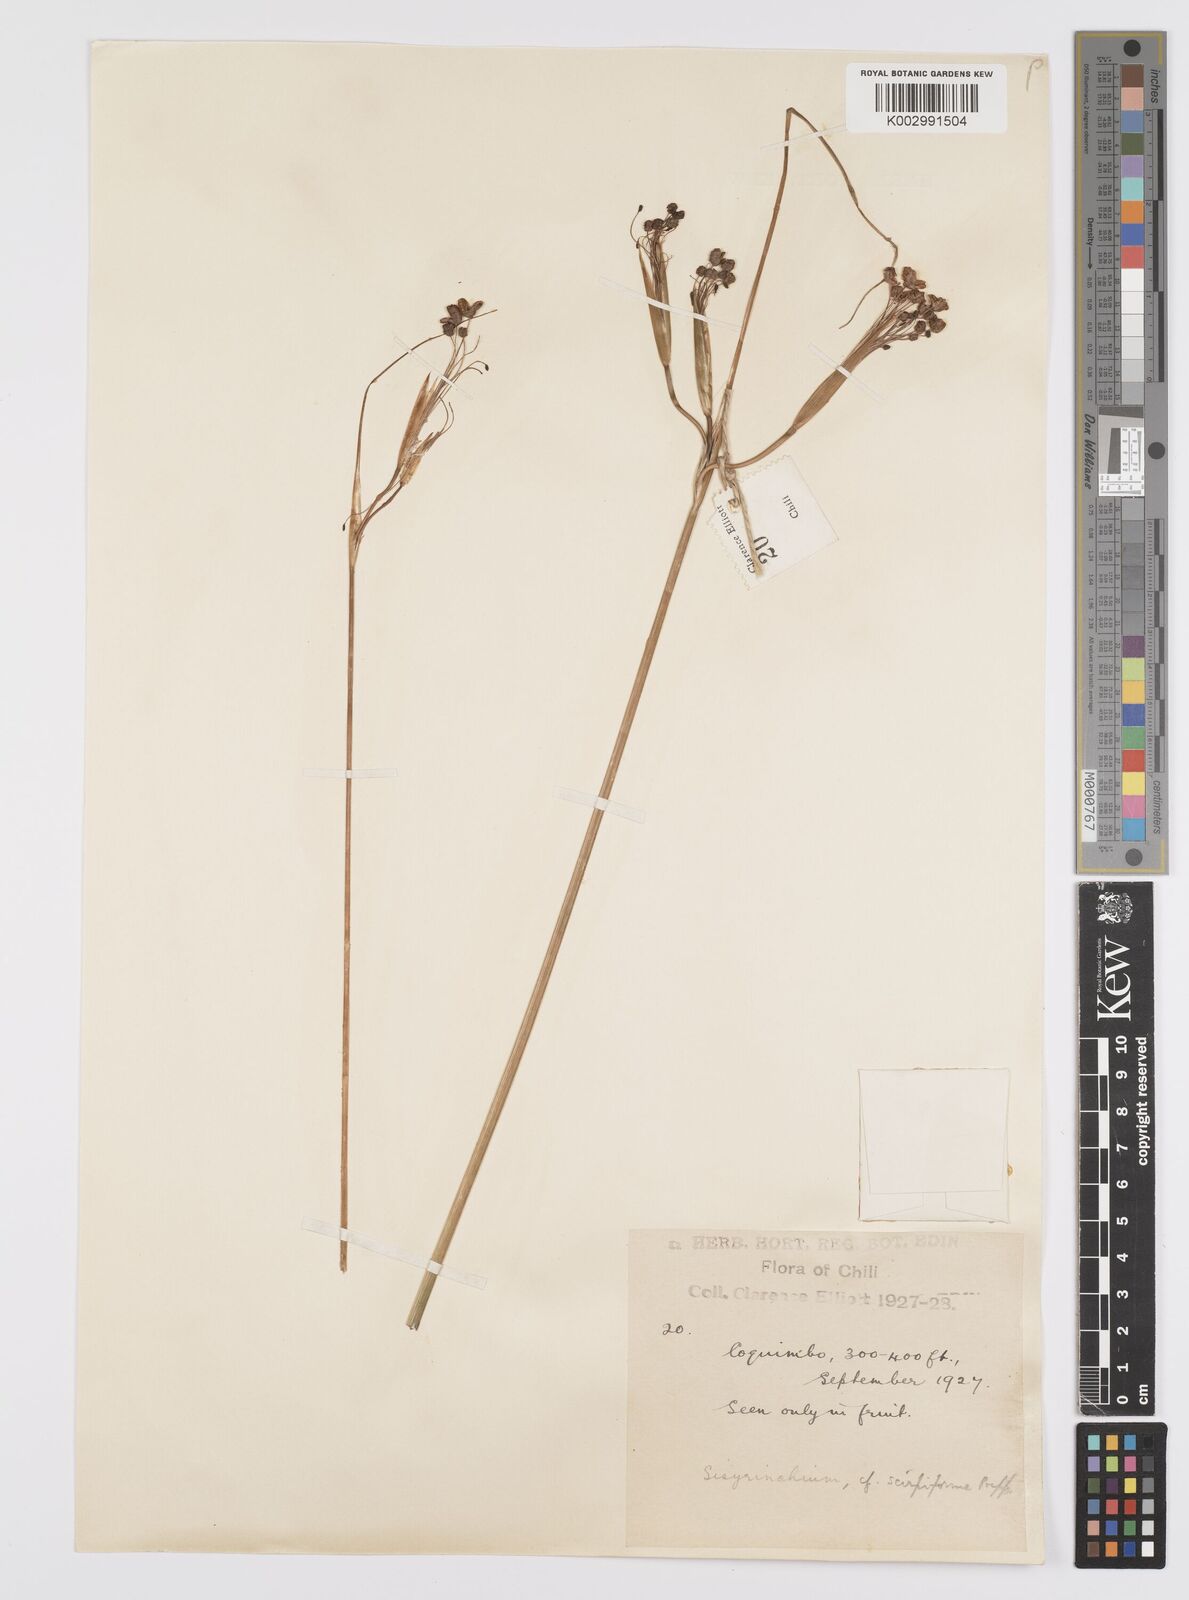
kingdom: Plantae
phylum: Tracheophyta
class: Liliopsida
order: Asparagales
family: Iridaceae
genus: Olsynium
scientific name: Olsynium junceum
